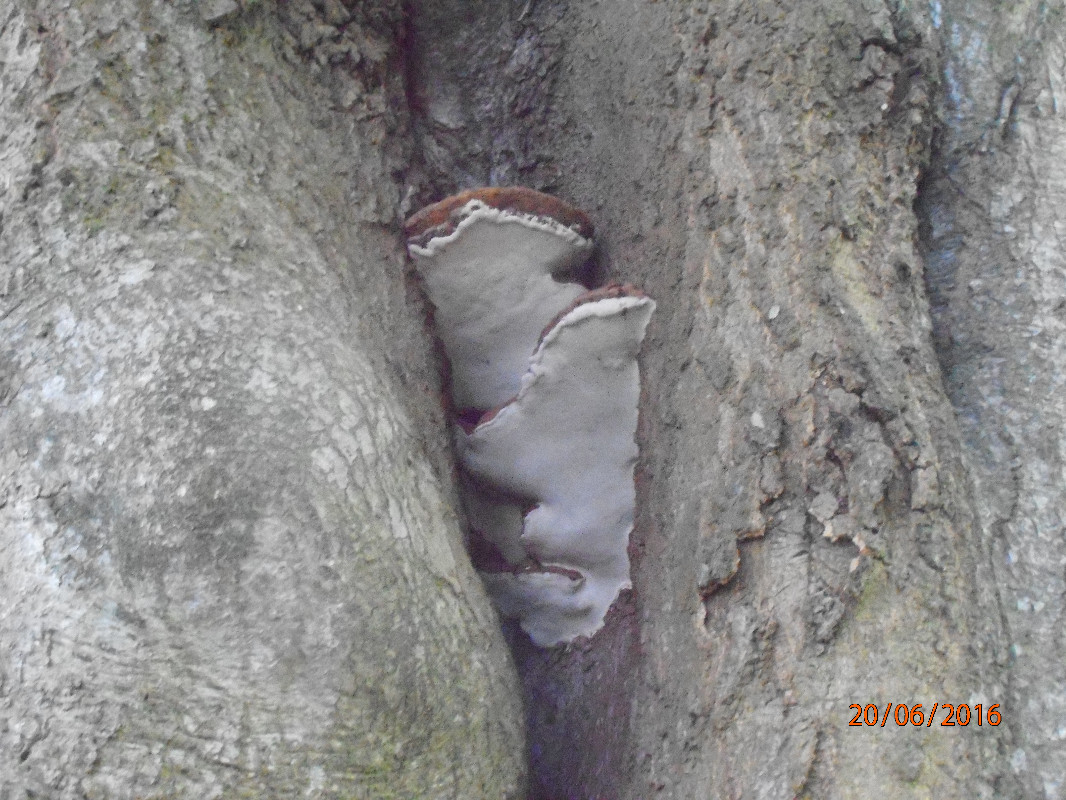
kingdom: Fungi
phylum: Basidiomycota
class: Agaricomycetes
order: Polyporales
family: Polyporaceae
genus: Ganoderma
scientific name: Ganoderma adspersum
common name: grov lakporesvamp
